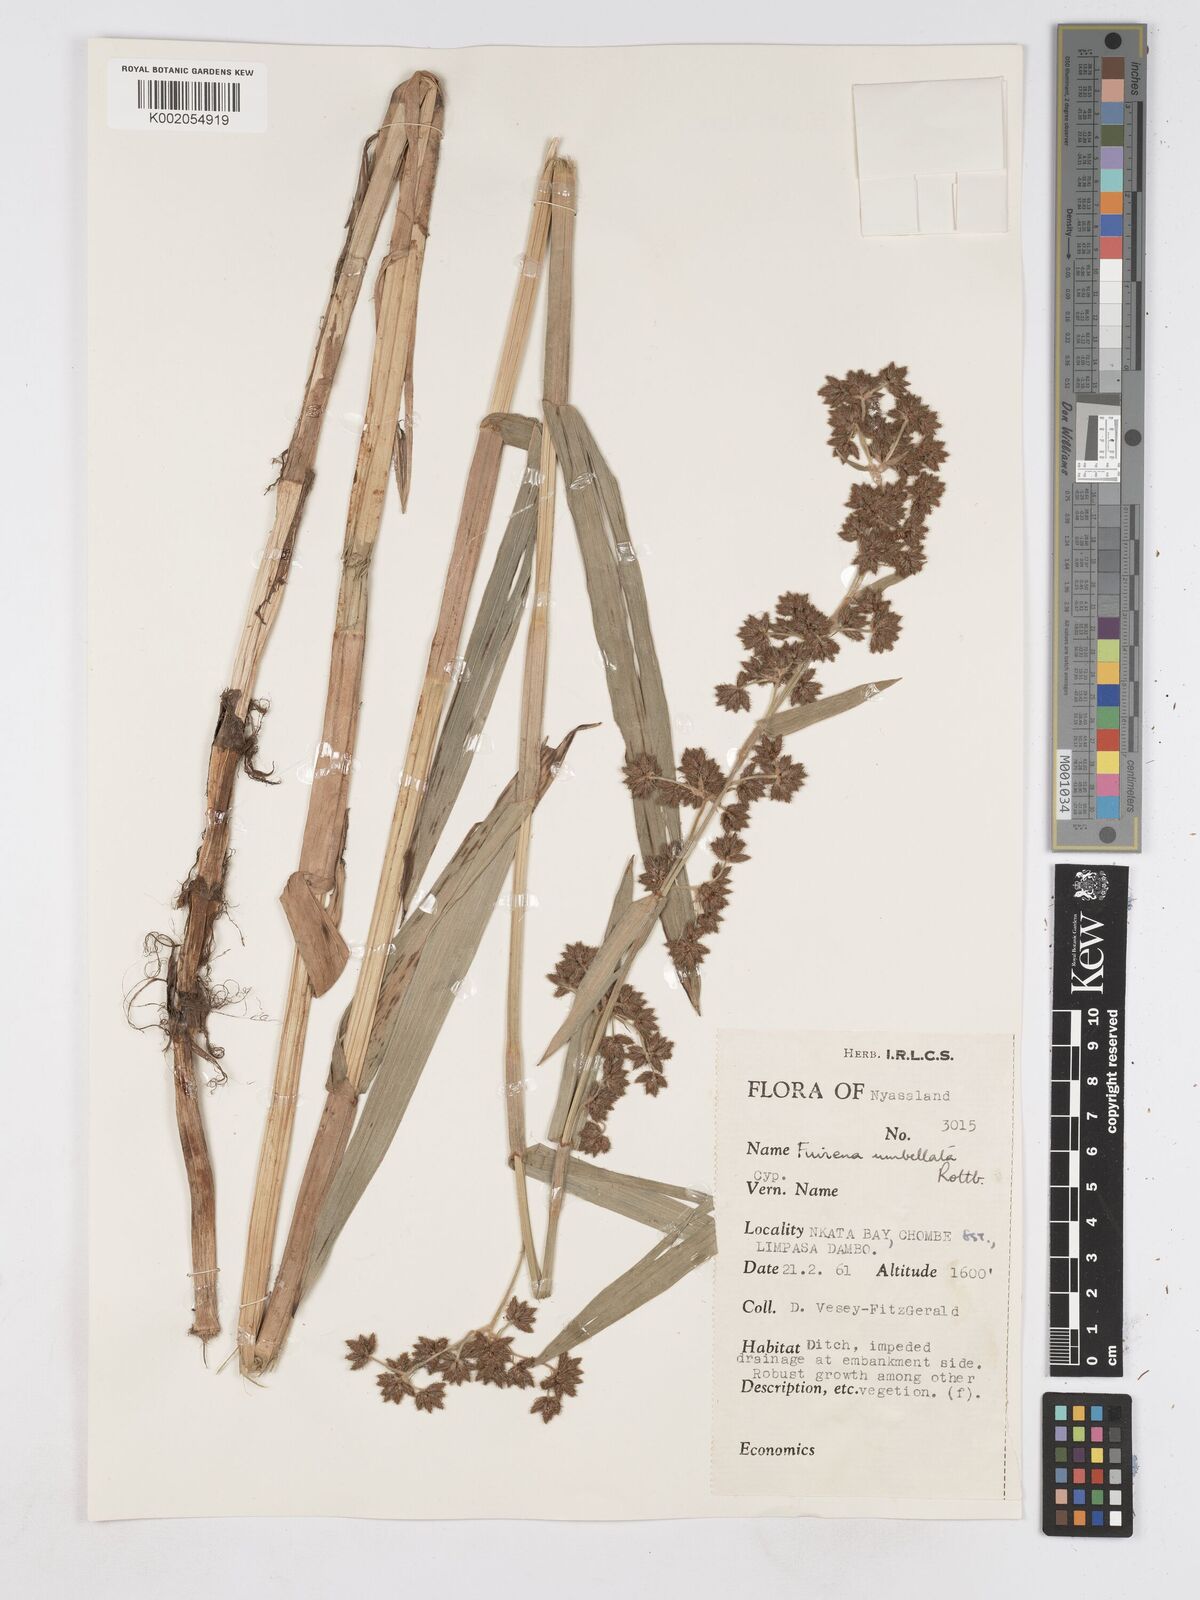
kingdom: Plantae
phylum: Tracheophyta
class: Liliopsida
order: Poales
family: Cyperaceae
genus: Fuirena
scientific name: Fuirena umbellata
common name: Yefen
